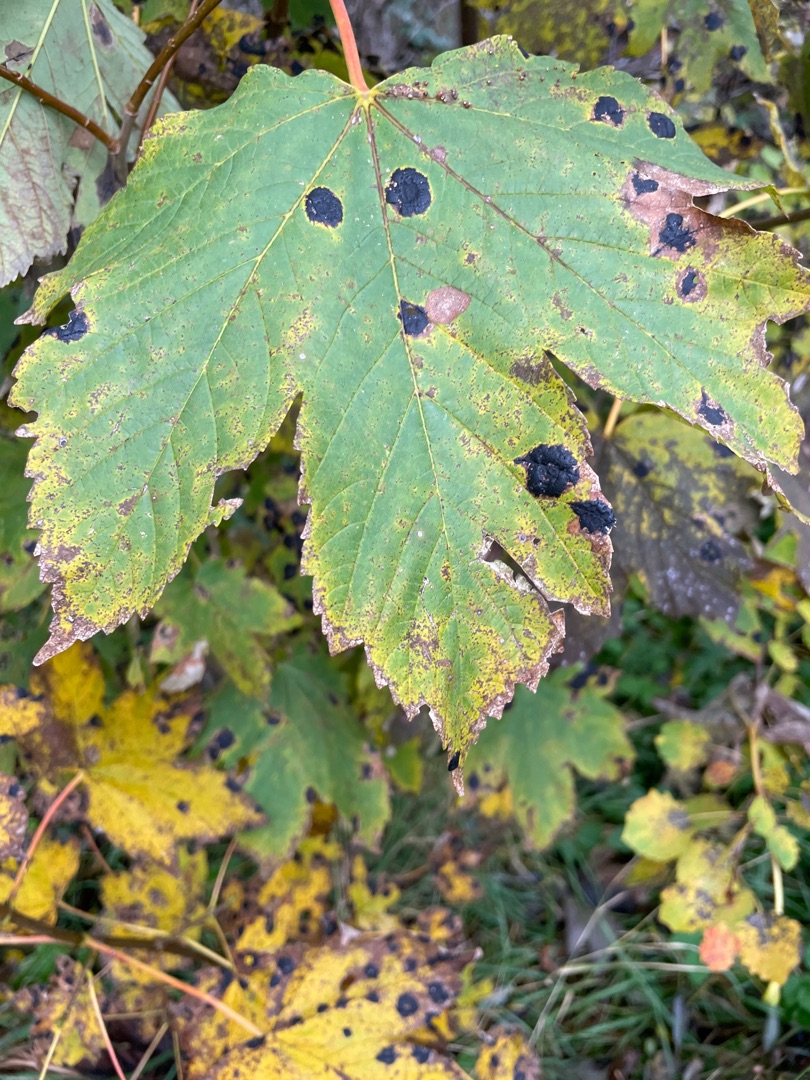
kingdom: Fungi
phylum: Ascomycota
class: Leotiomycetes
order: Rhytismatales
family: Rhytismataceae
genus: Rhytisma
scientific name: Rhytisma acerinum
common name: Ahorn-rynkeplet
